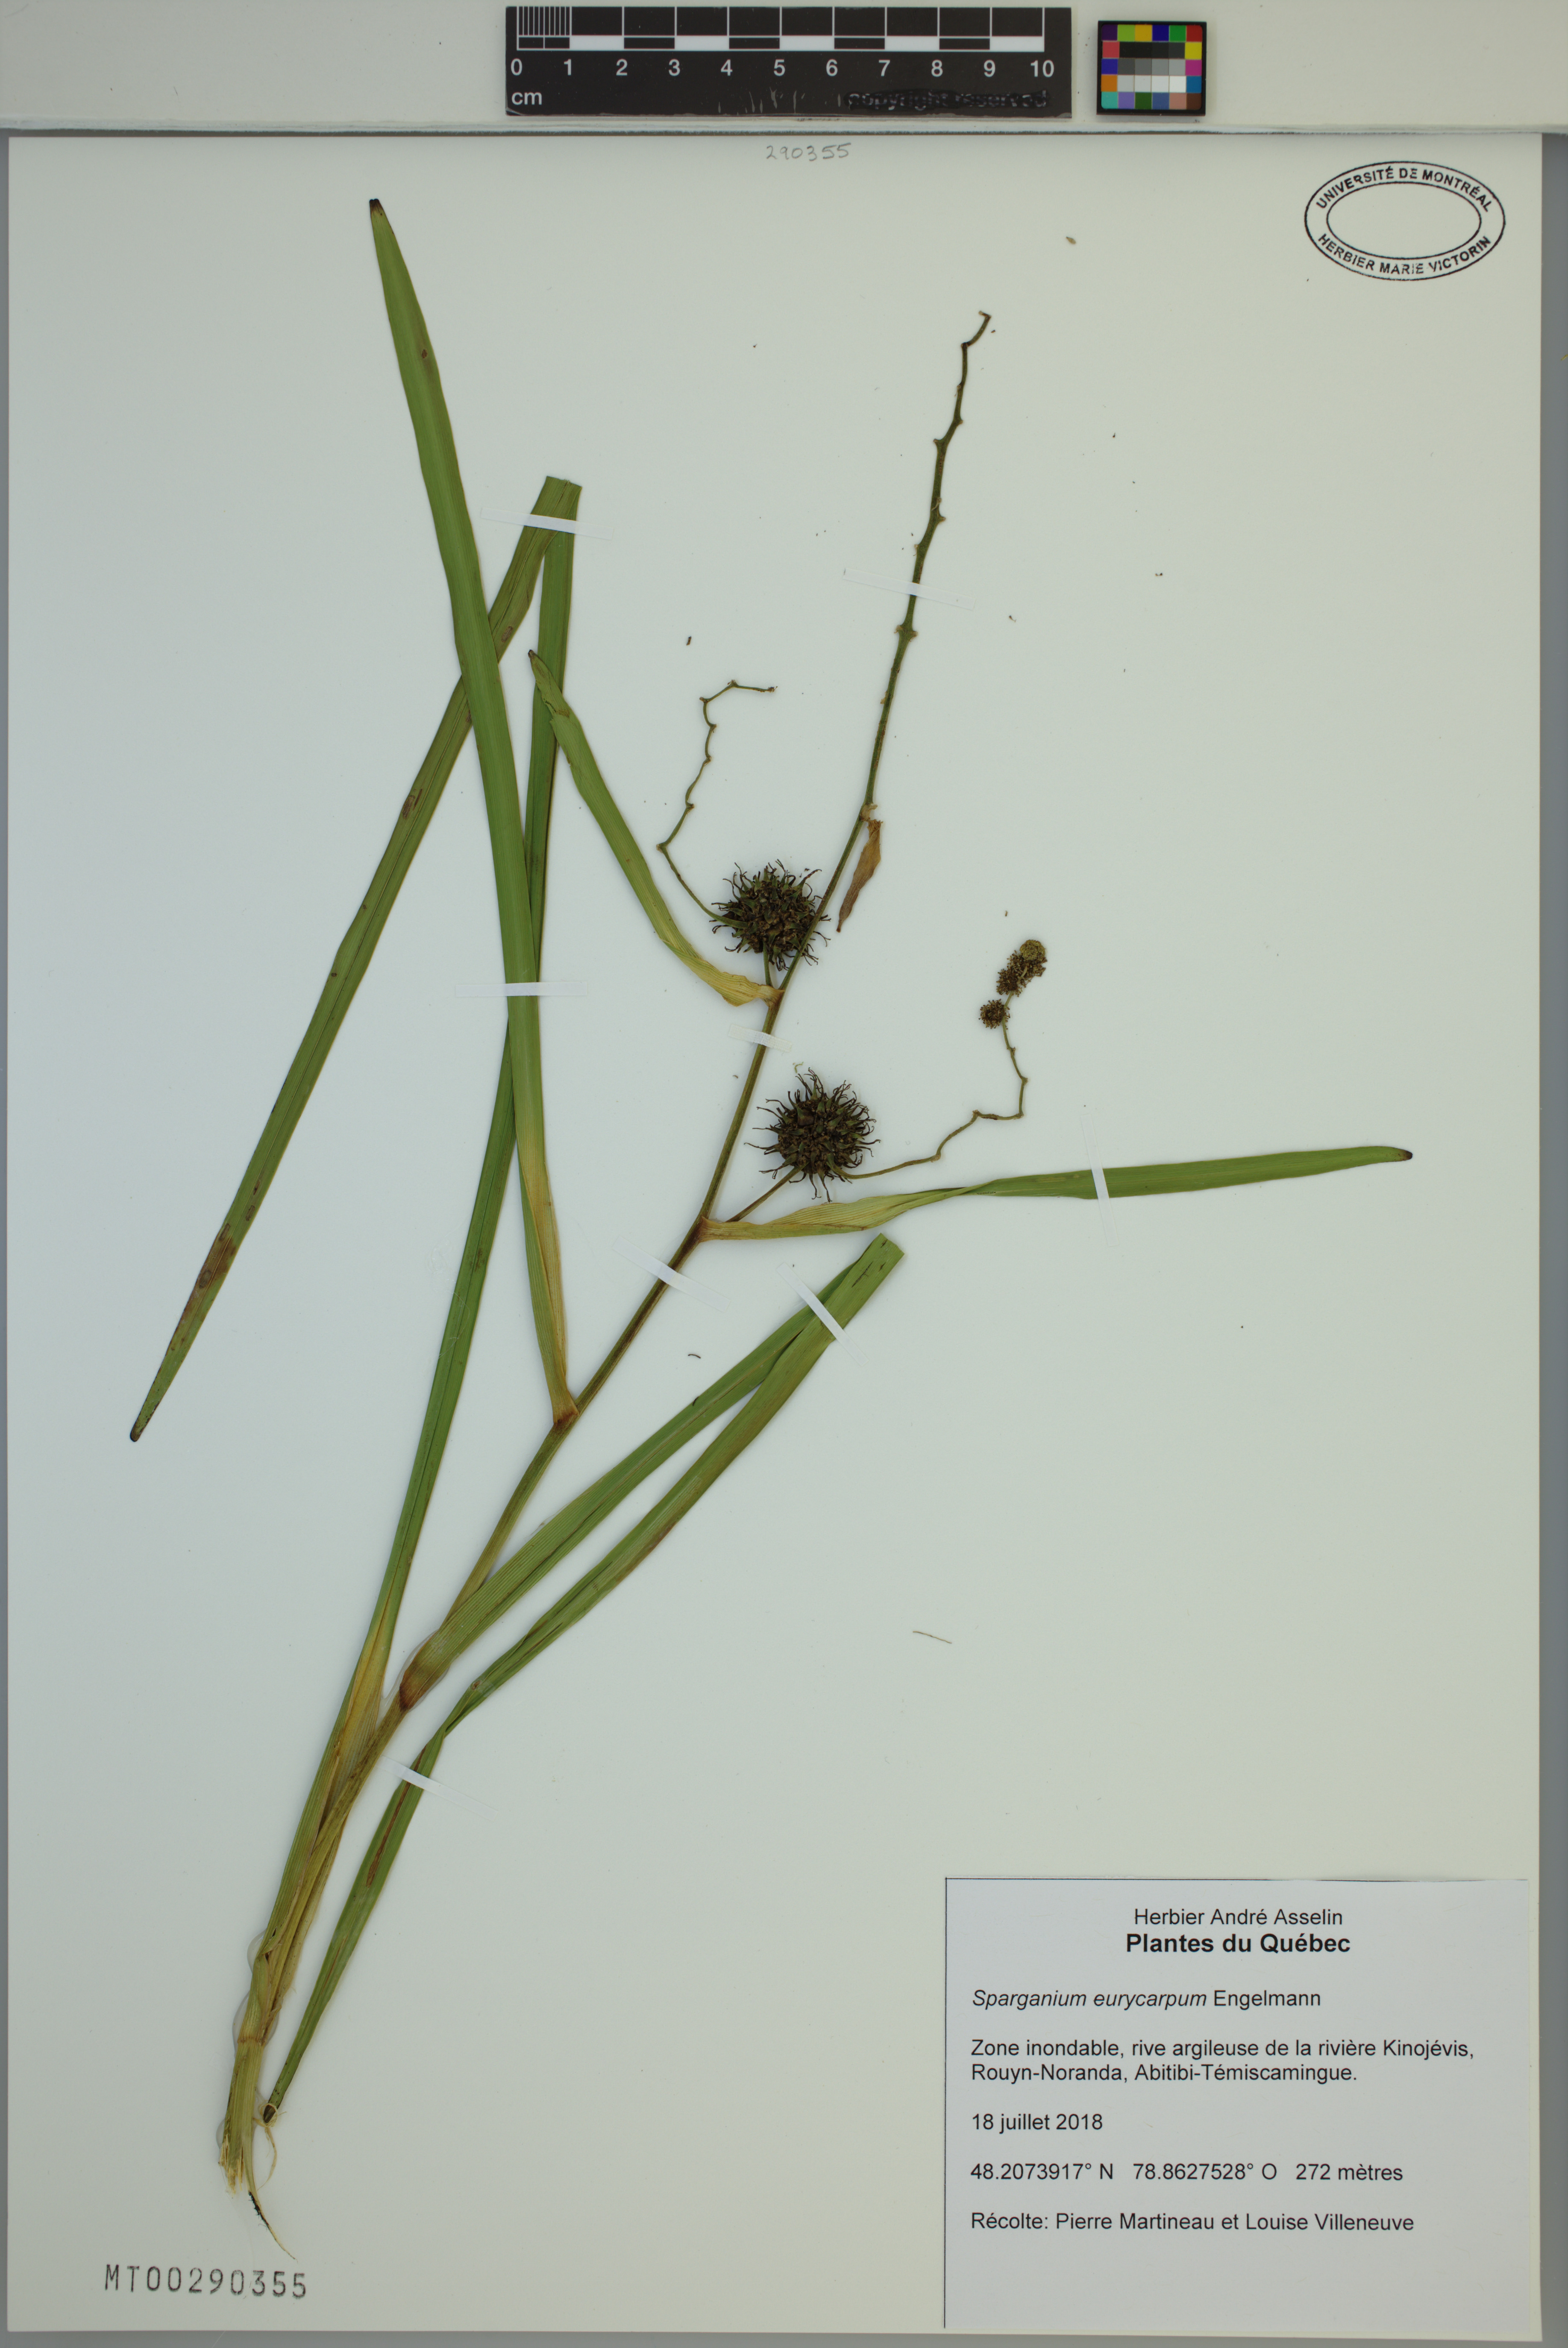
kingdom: Plantae
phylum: Tracheophyta
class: Liliopsida
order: Poales
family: Typhaceae
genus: Sparganium
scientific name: Sparganium eurycarpum
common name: Broad-fruited burreed
